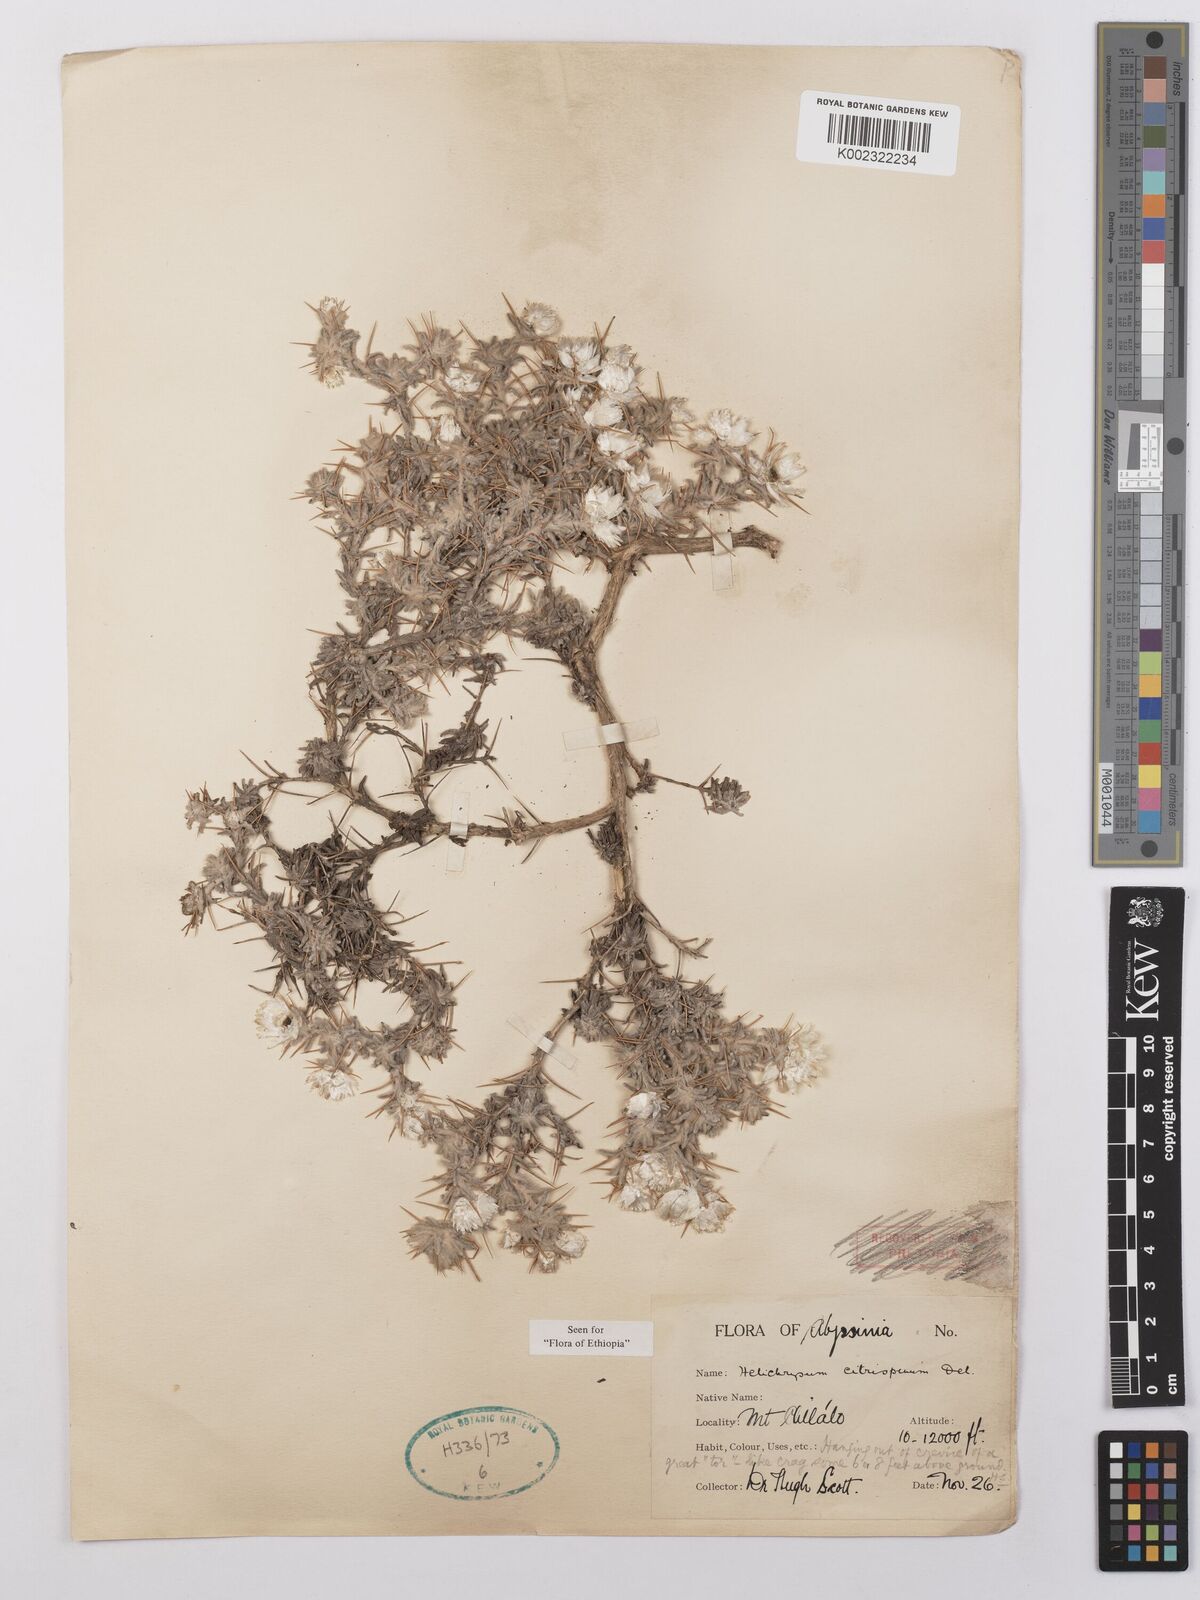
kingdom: Plantae
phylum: Tracheophyta
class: Magnoliopsida
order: Asterales
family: Asteraceae
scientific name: Asteraceae
